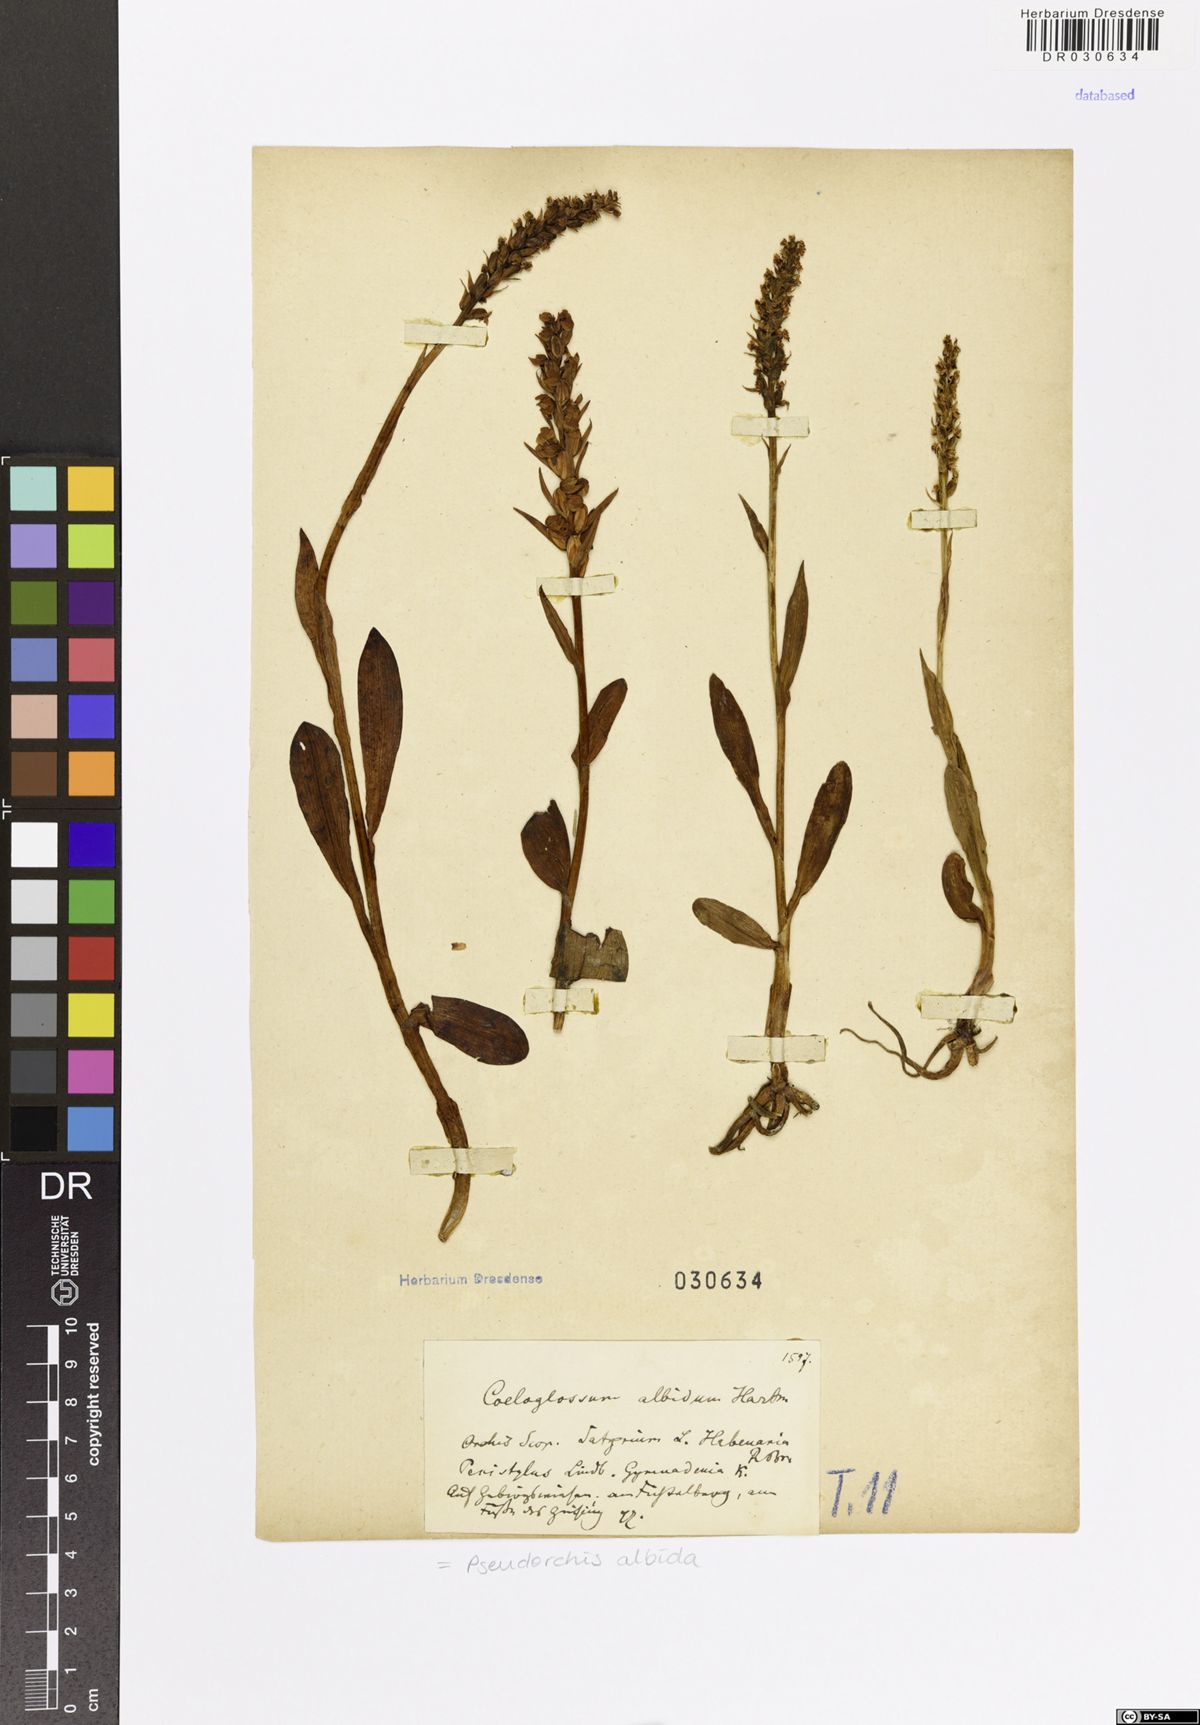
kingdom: Plantae
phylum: Tracheophyta
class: Liliopsida
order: Asparagales
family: Orchidaceae
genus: Pseudorchis
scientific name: Pseudorchis albida
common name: Small-white orchid
